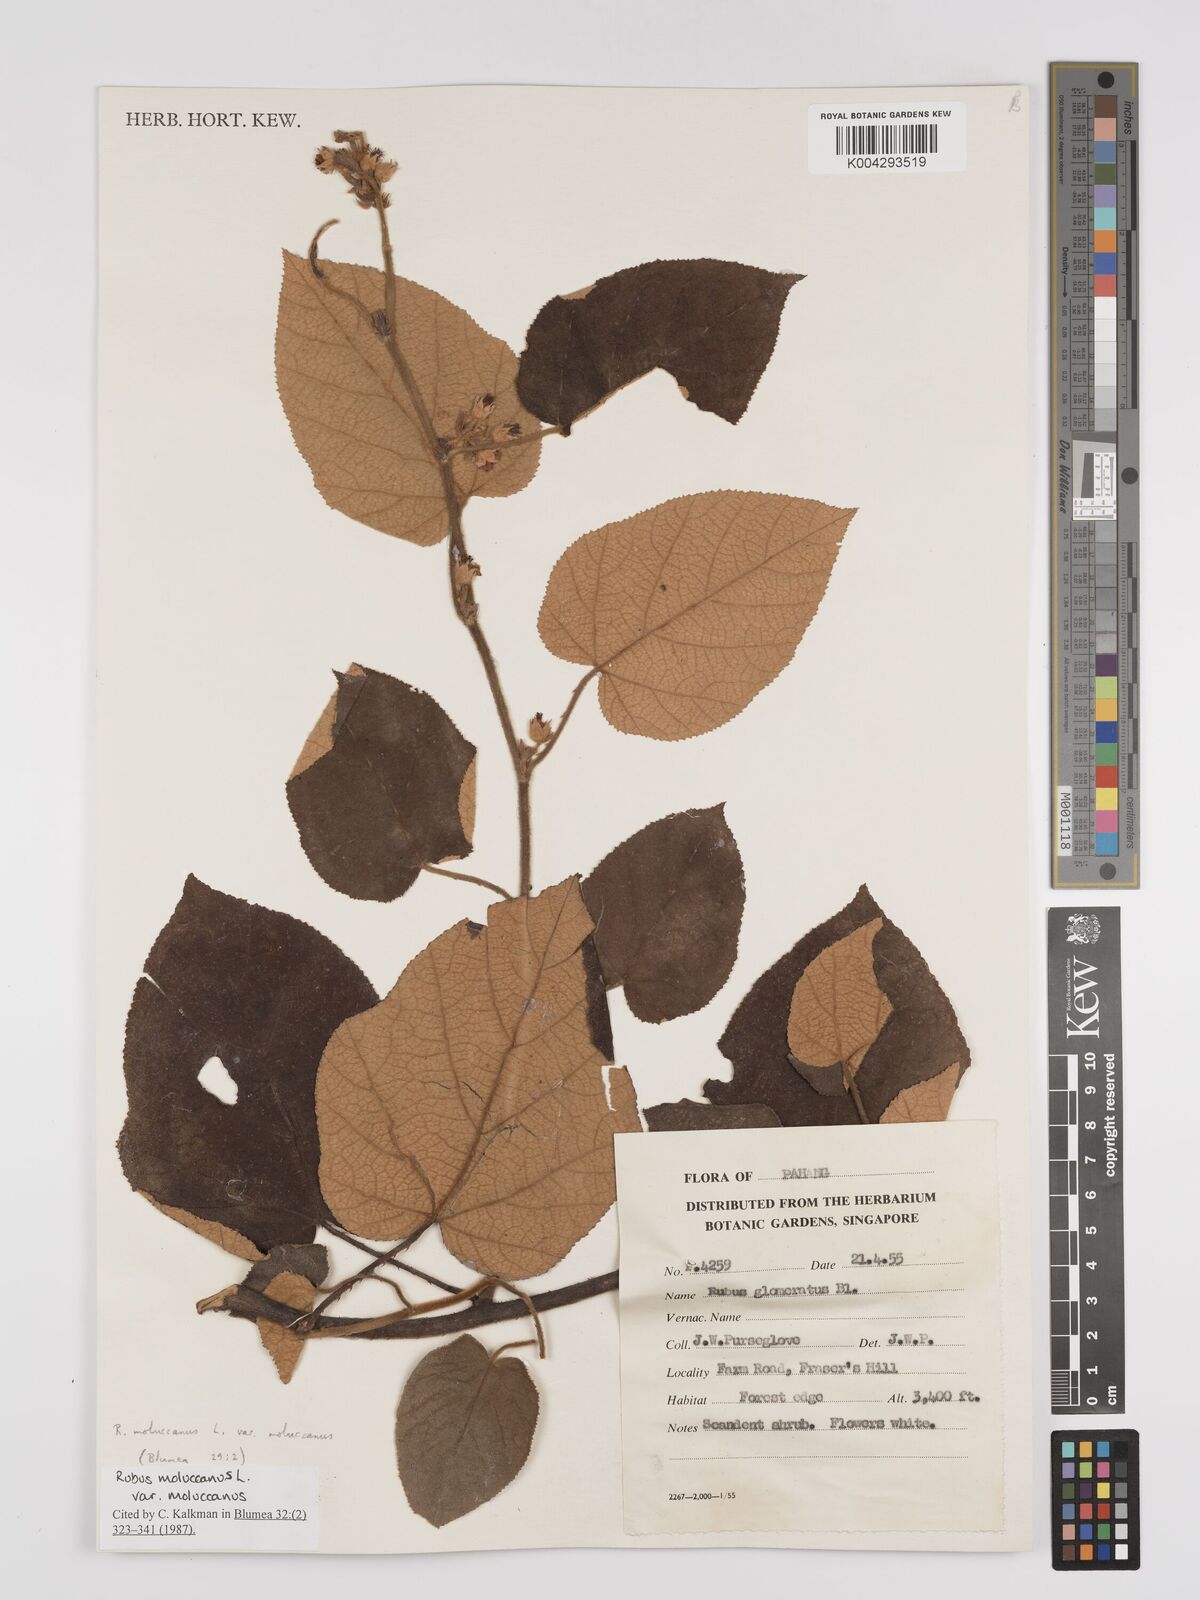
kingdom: Plantae
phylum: Tracheophyta
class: Magnoliopsida
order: Rosales
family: Rosaceae
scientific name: Rosaceae
